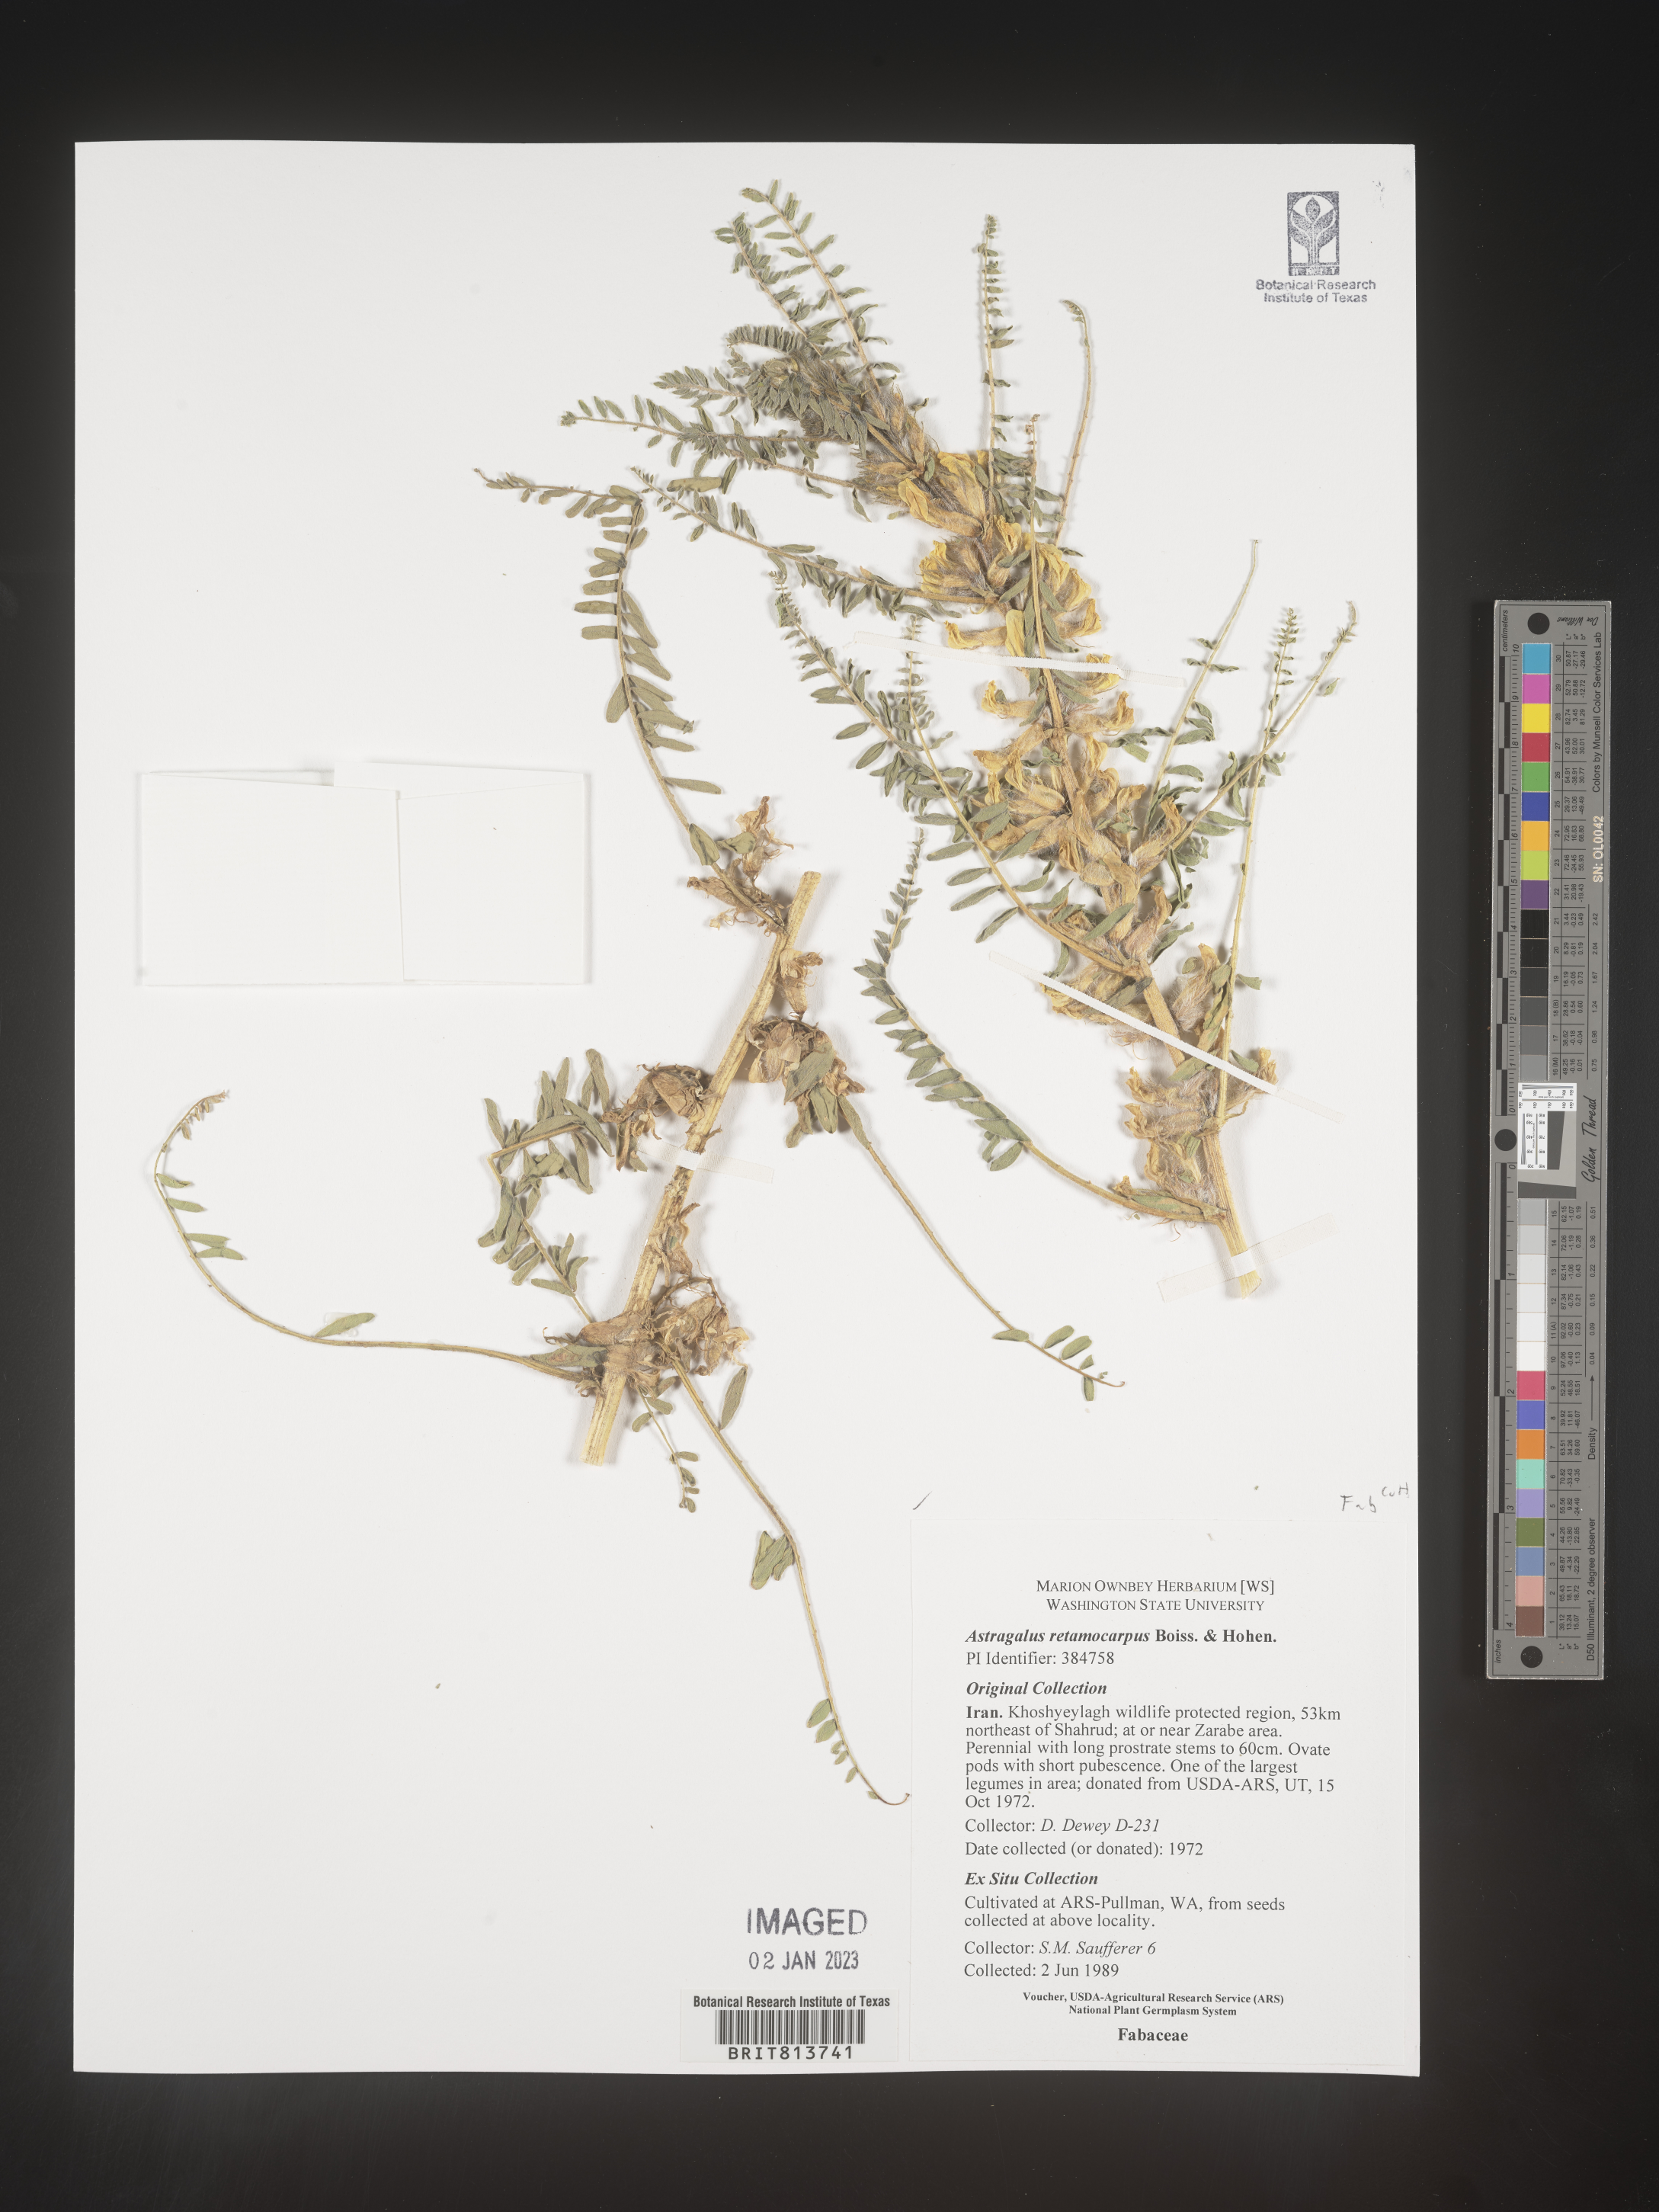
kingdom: Plantae
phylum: Tracheophyta
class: Magnoliopsida
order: Fabales
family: Fabaceae
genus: Astragalus
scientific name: Astragalus
